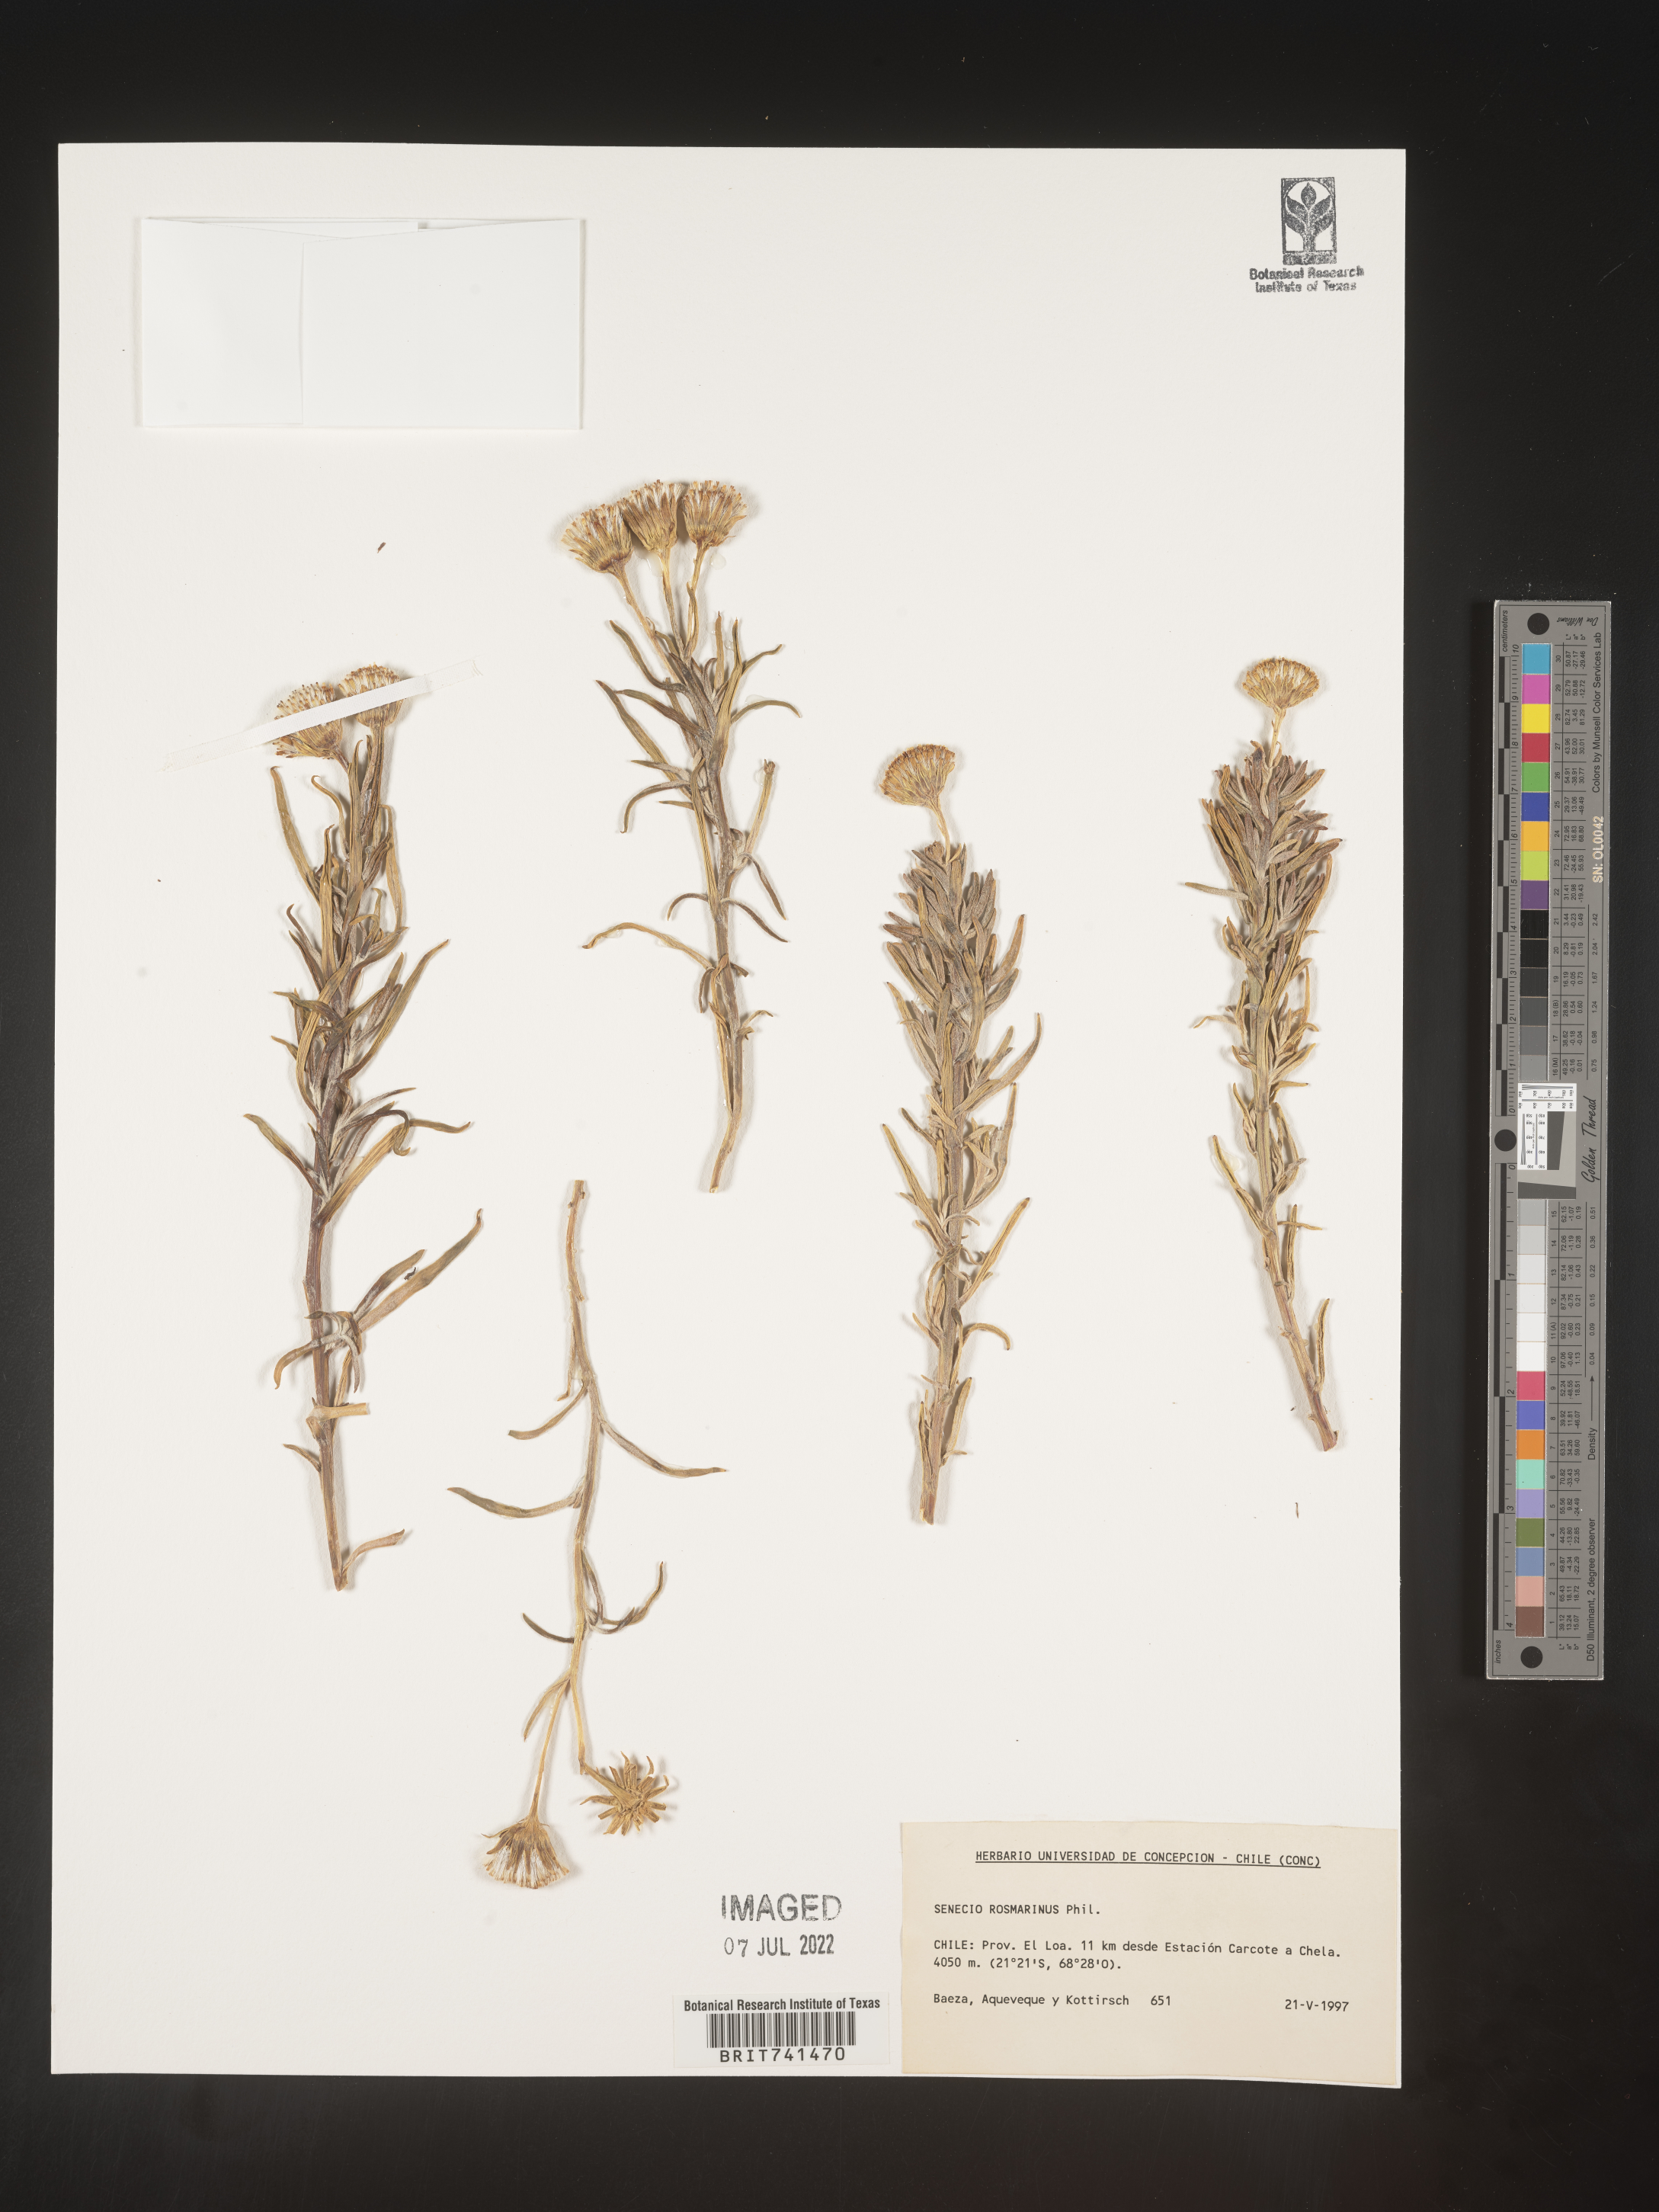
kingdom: Plantae
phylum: Tracheophyta
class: Magnoliopsida
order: Asterales
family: Asteraceae
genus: Senecio
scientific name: Senecio
